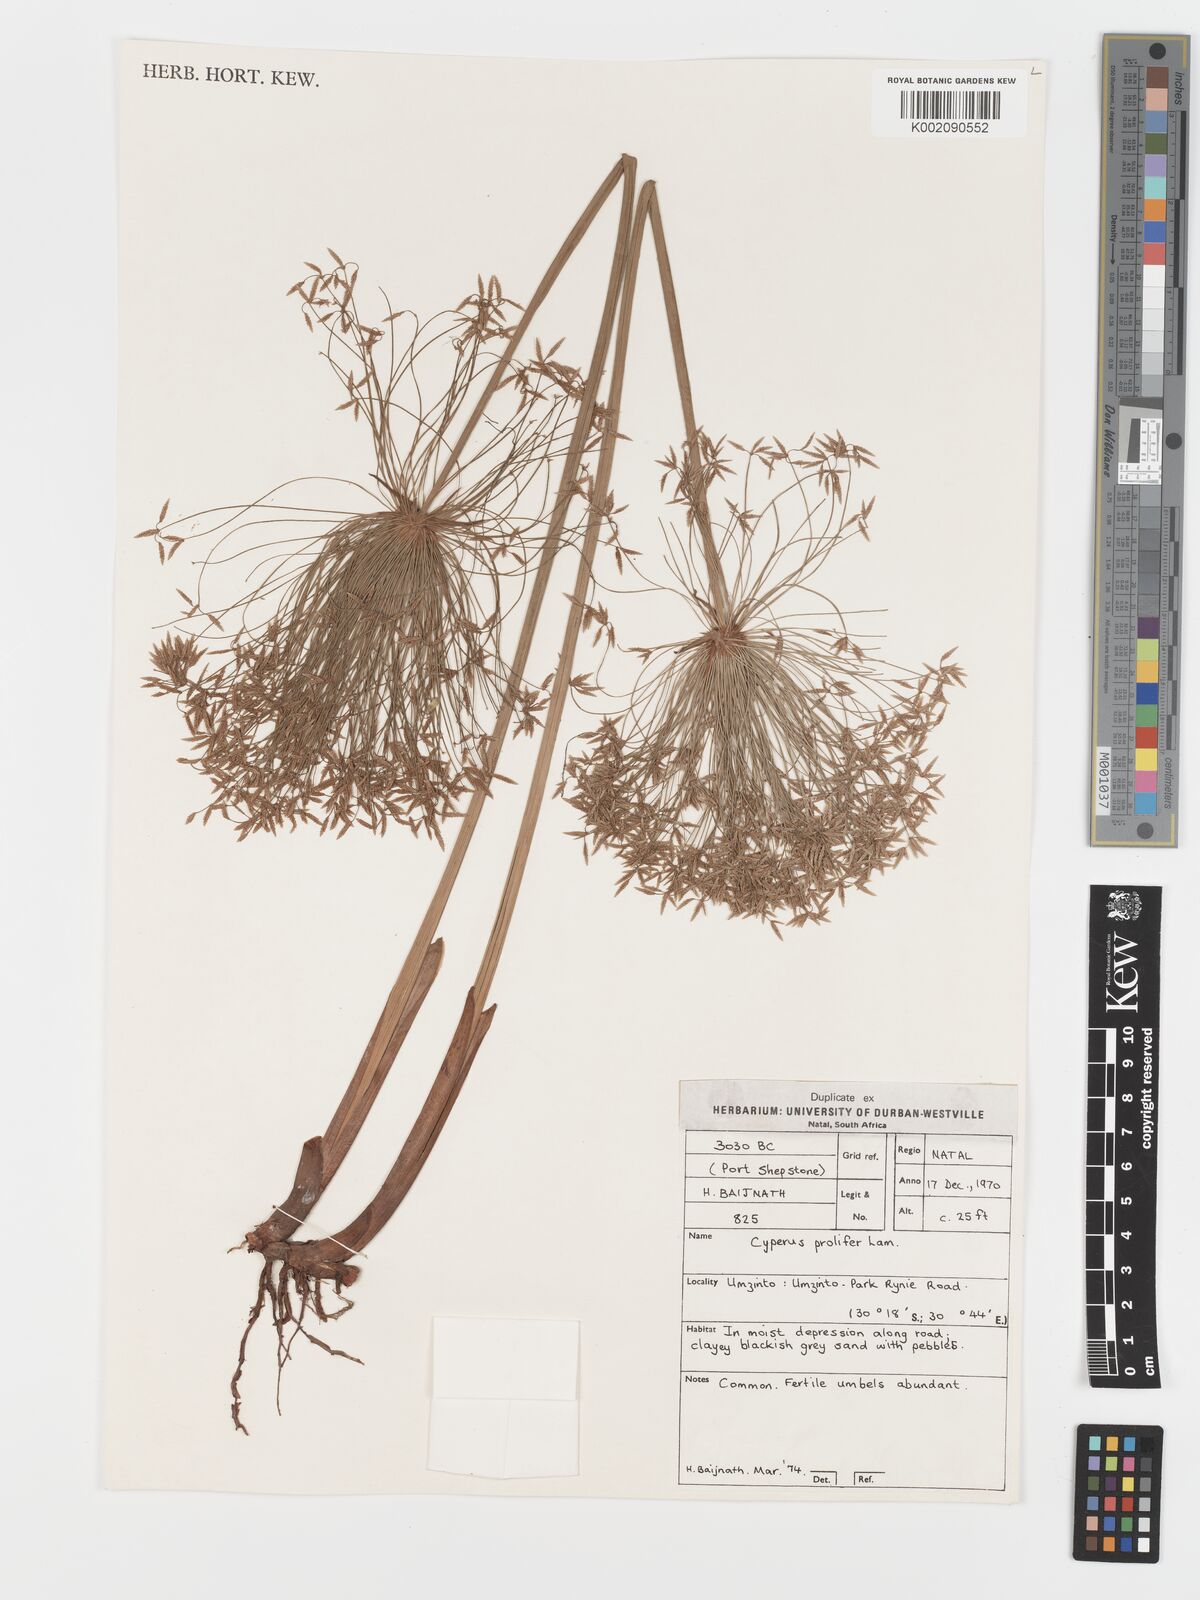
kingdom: Plantae
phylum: Tracheophyta
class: Liliopsida
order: Poales
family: Cyperaceae
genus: Cyperus
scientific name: Cyperus prolifer
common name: Miniature flatsedge
